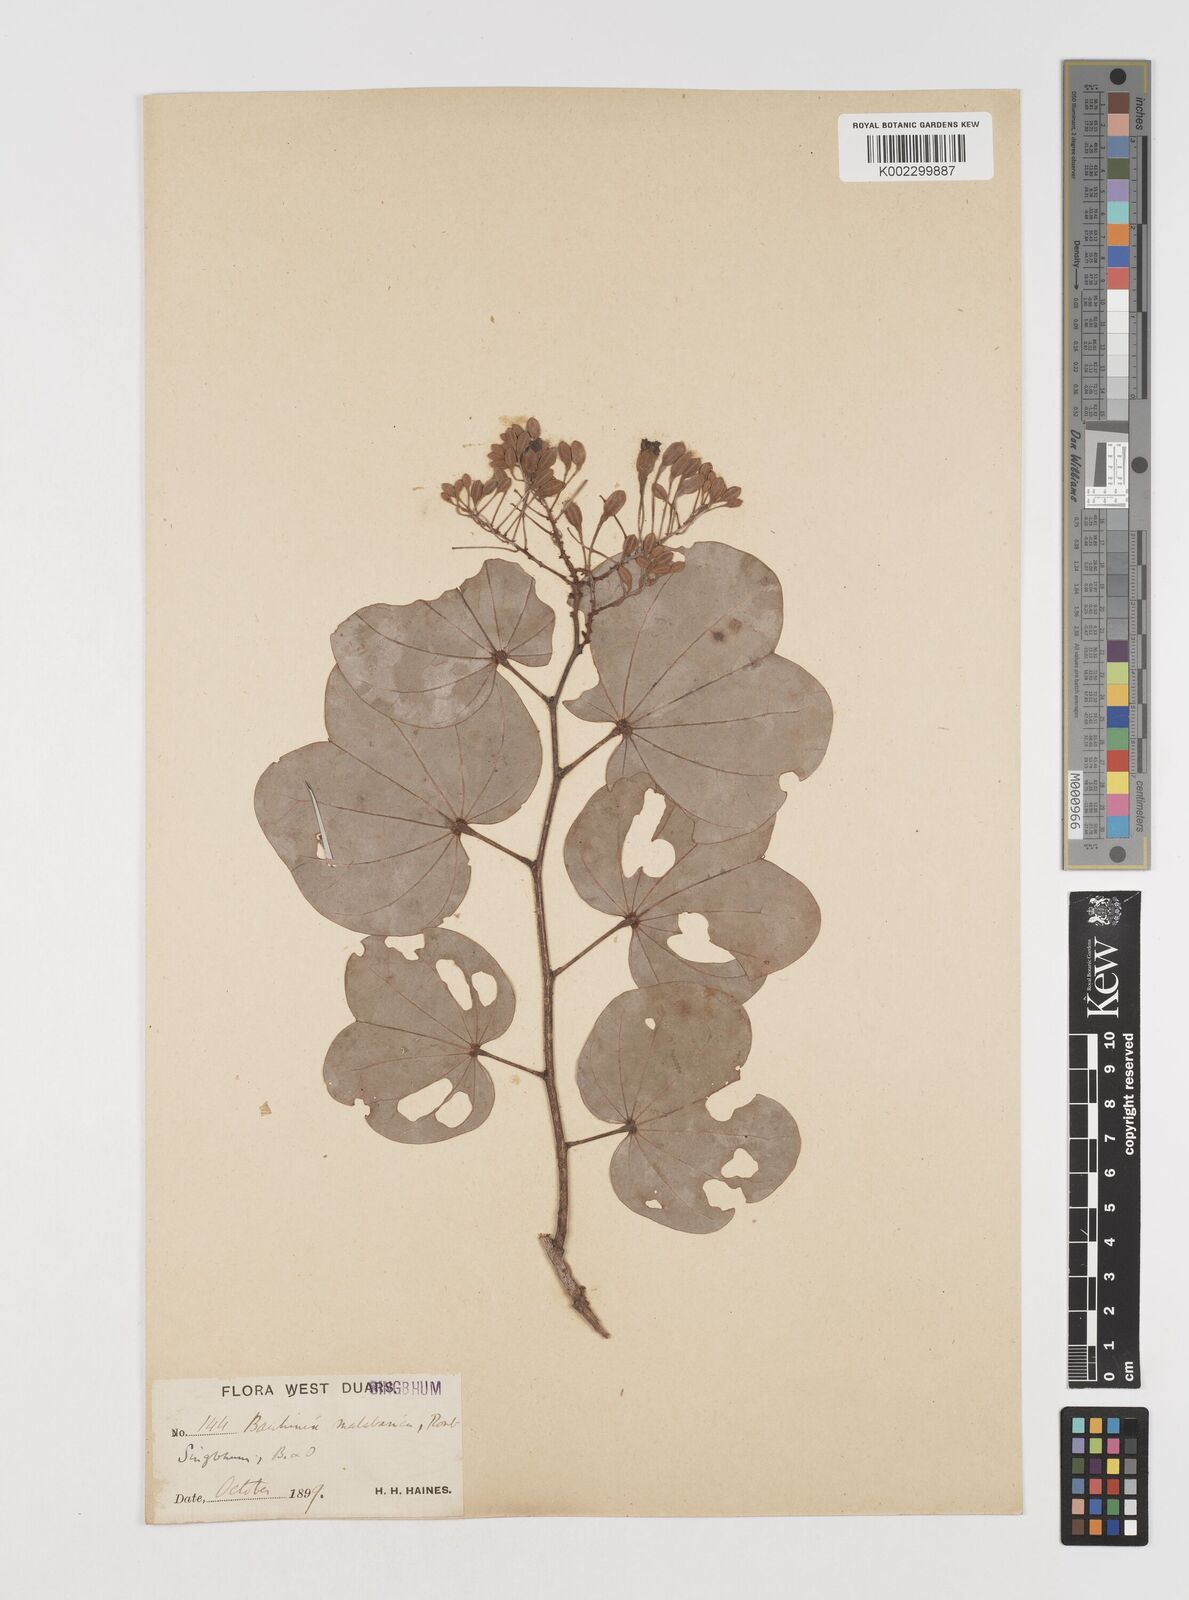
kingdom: Plantae
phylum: Tracheophyta
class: Magnoliopsida
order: Fabales
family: Fabaceae
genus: Piliostigma
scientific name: Piliostigma malabaricum
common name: Malabar bauhinia
